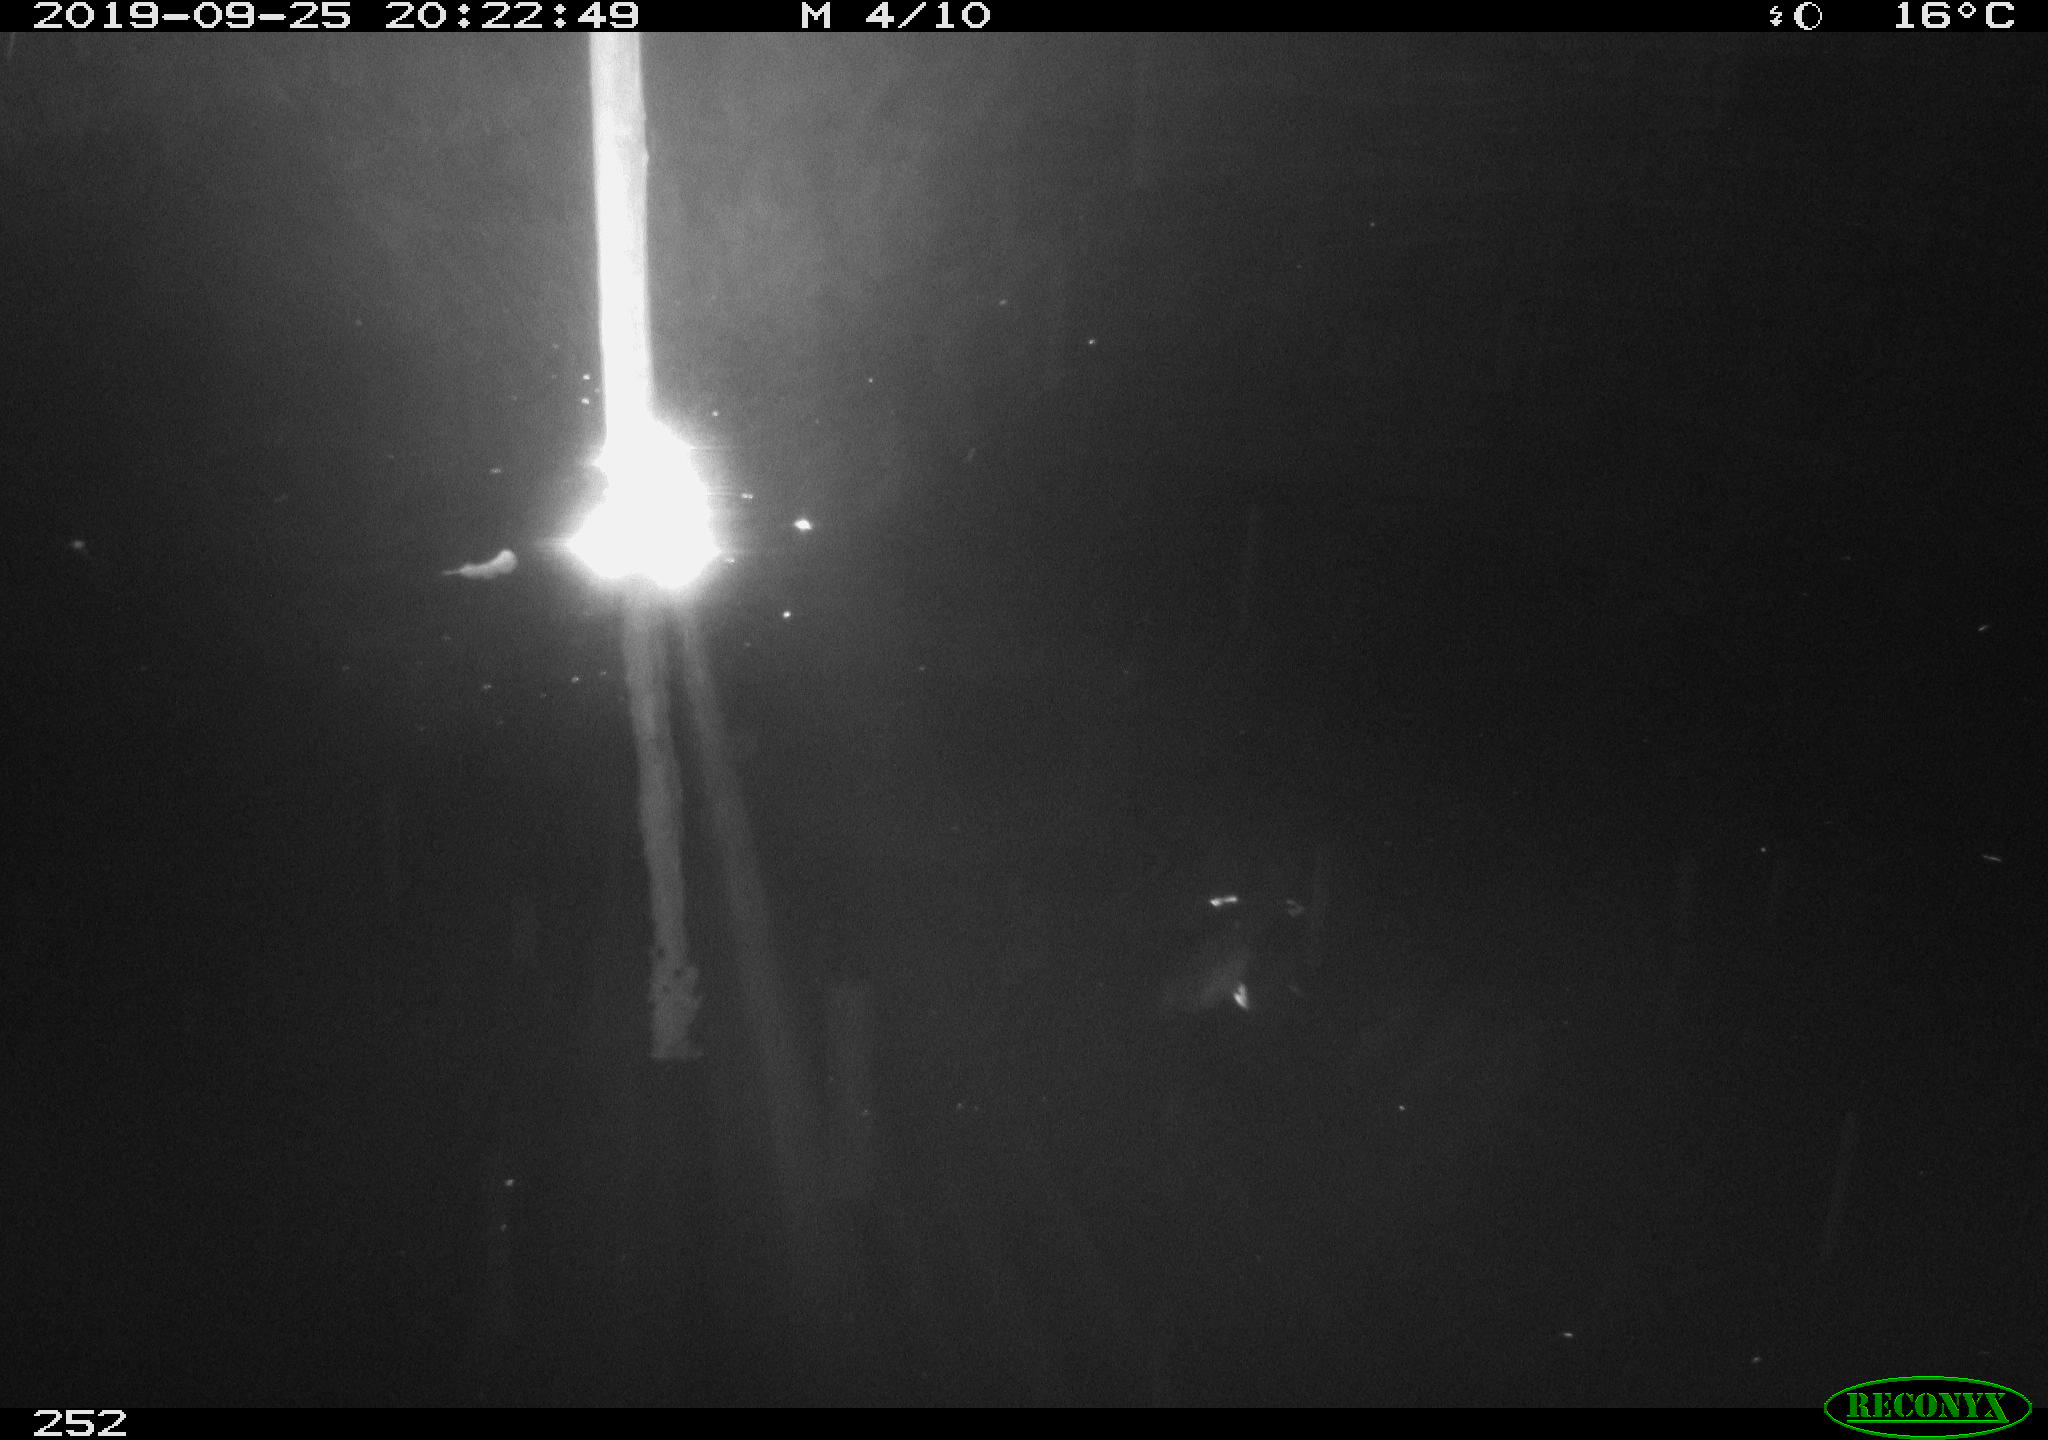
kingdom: Animalia
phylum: Chordata
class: Aves
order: Anseriformes
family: Anatidae
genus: Anas
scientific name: Anas platyrhynchos
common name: Mallard
